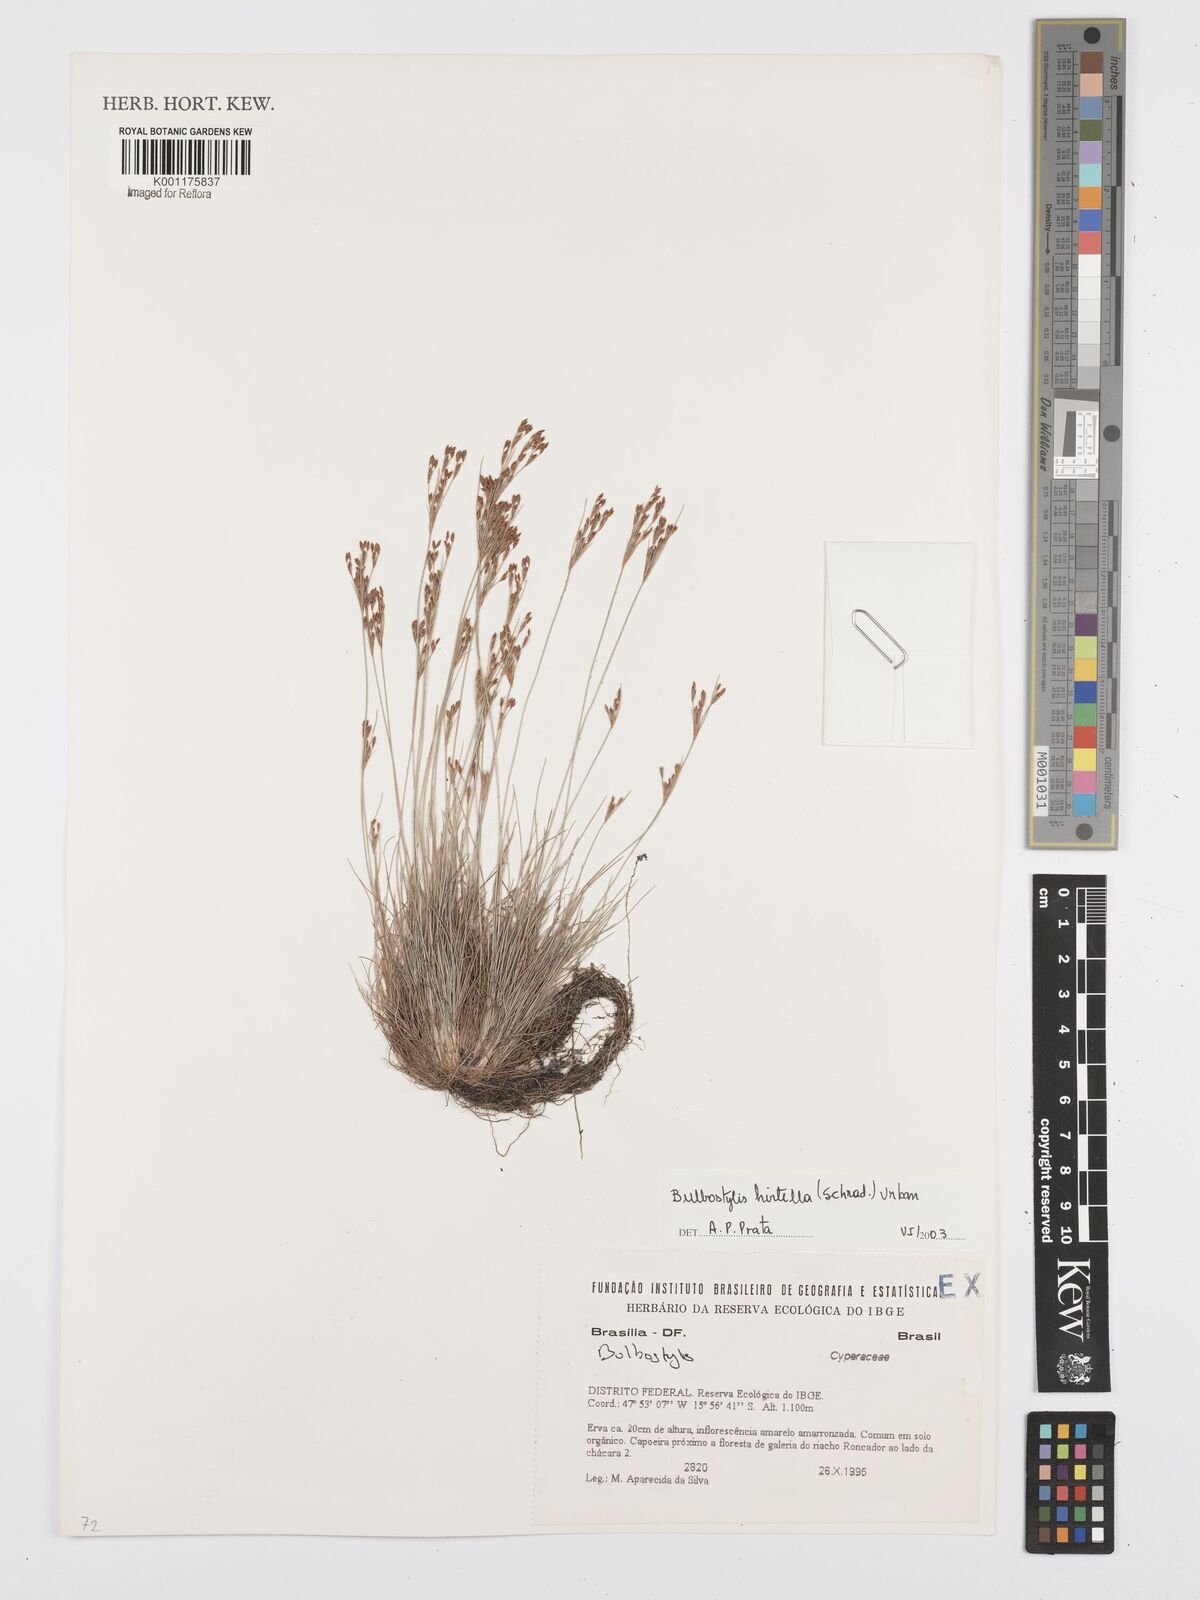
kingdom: Plantae
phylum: Tracheophyta
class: Liliopsida
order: Poales
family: Cyperaceae
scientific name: Cyperaceae
